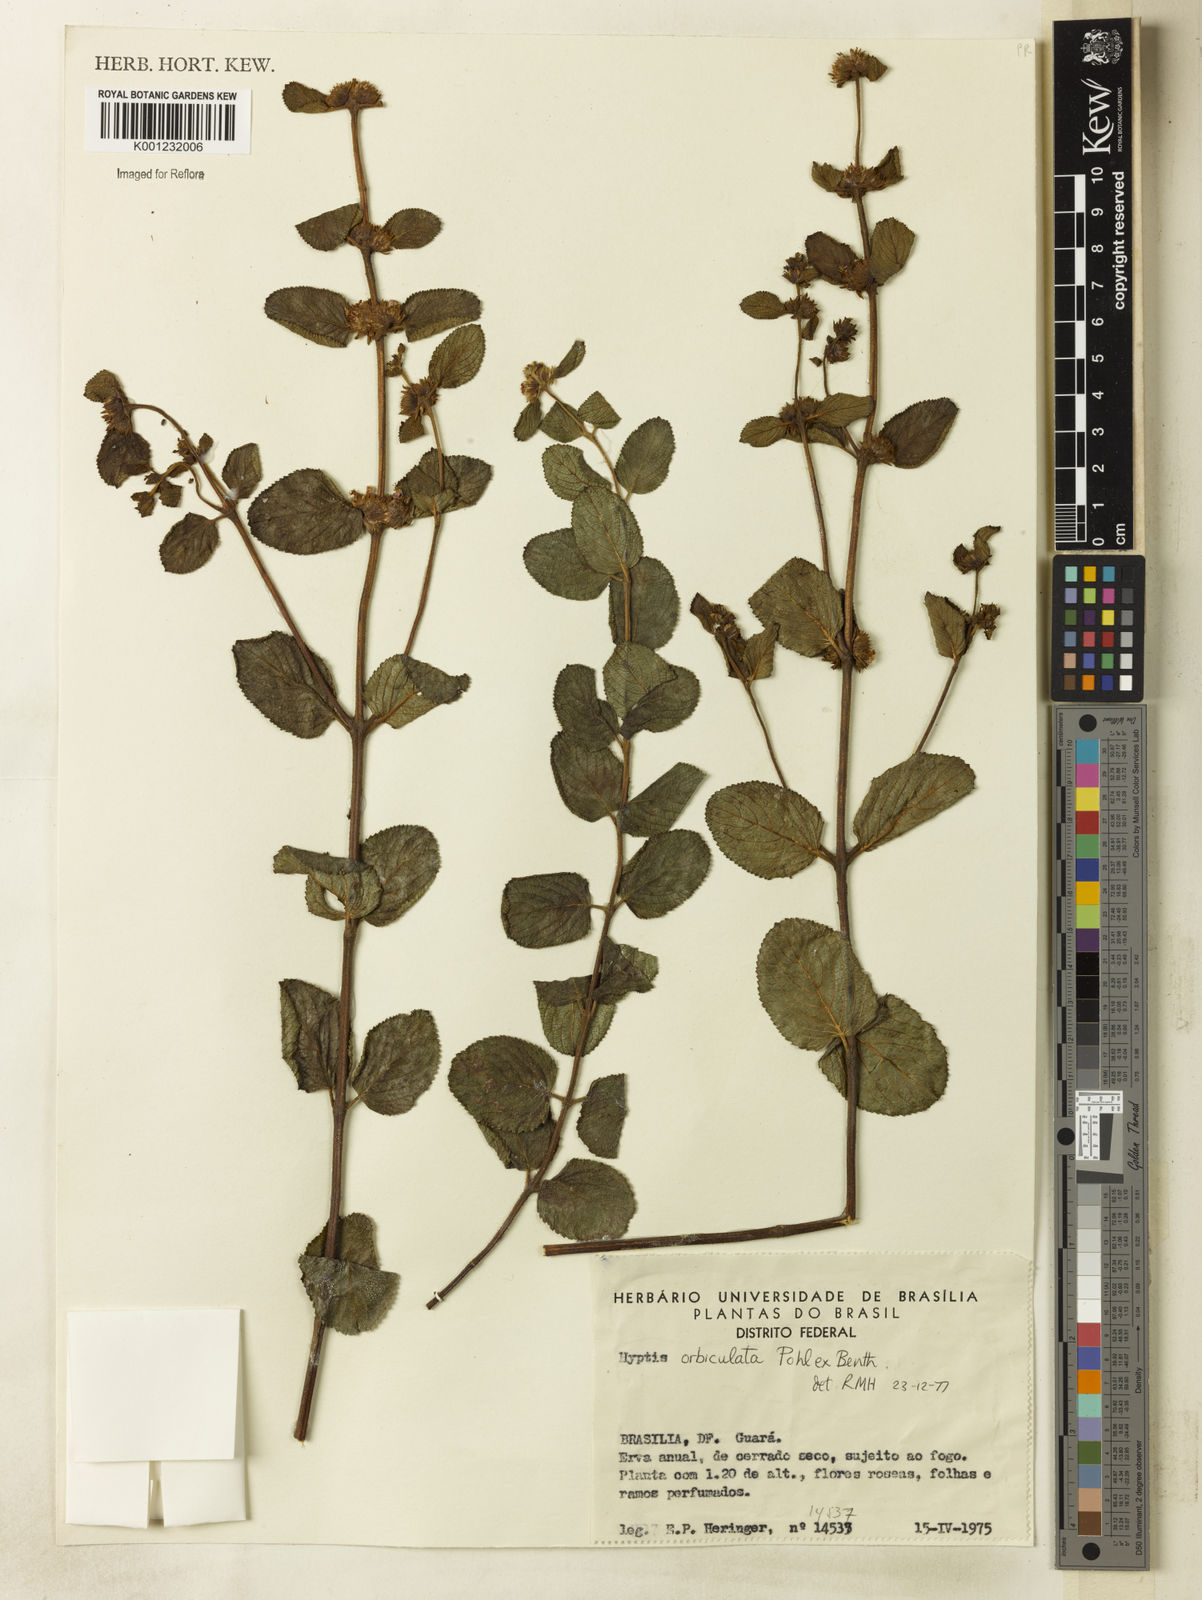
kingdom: Plantae
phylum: Tracheophyta
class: Magnoliopsida
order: Lamiales
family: Lamiaceae
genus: Hyptis
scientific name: Hyptis orbiculata
